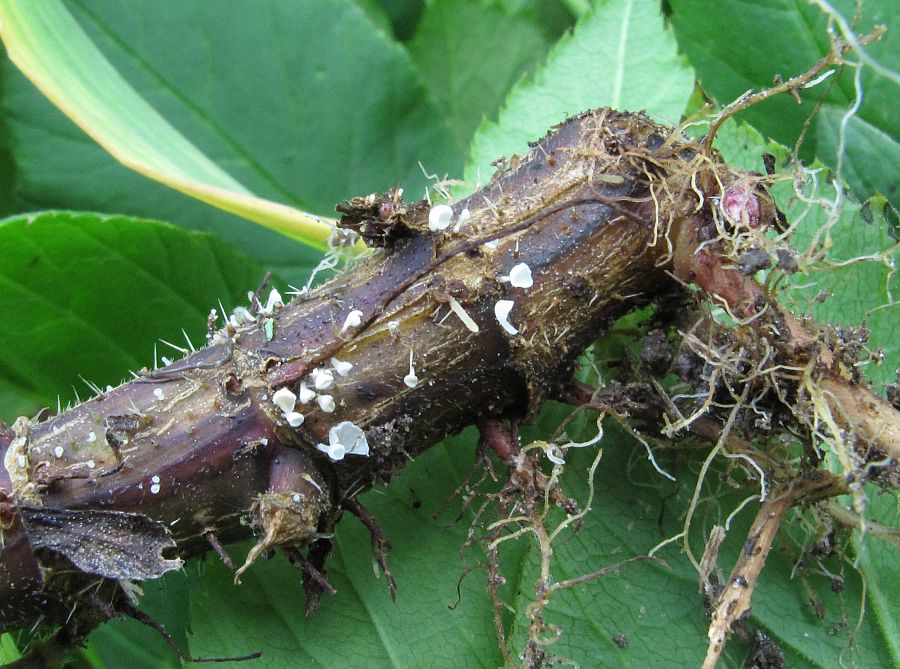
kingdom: Fungi
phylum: Basidiomycota
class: Agaricomycetes
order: Agaricales
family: Marasmiaceae
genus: Calyptella
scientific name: Calyptella capula
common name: hvidlig nældehue
